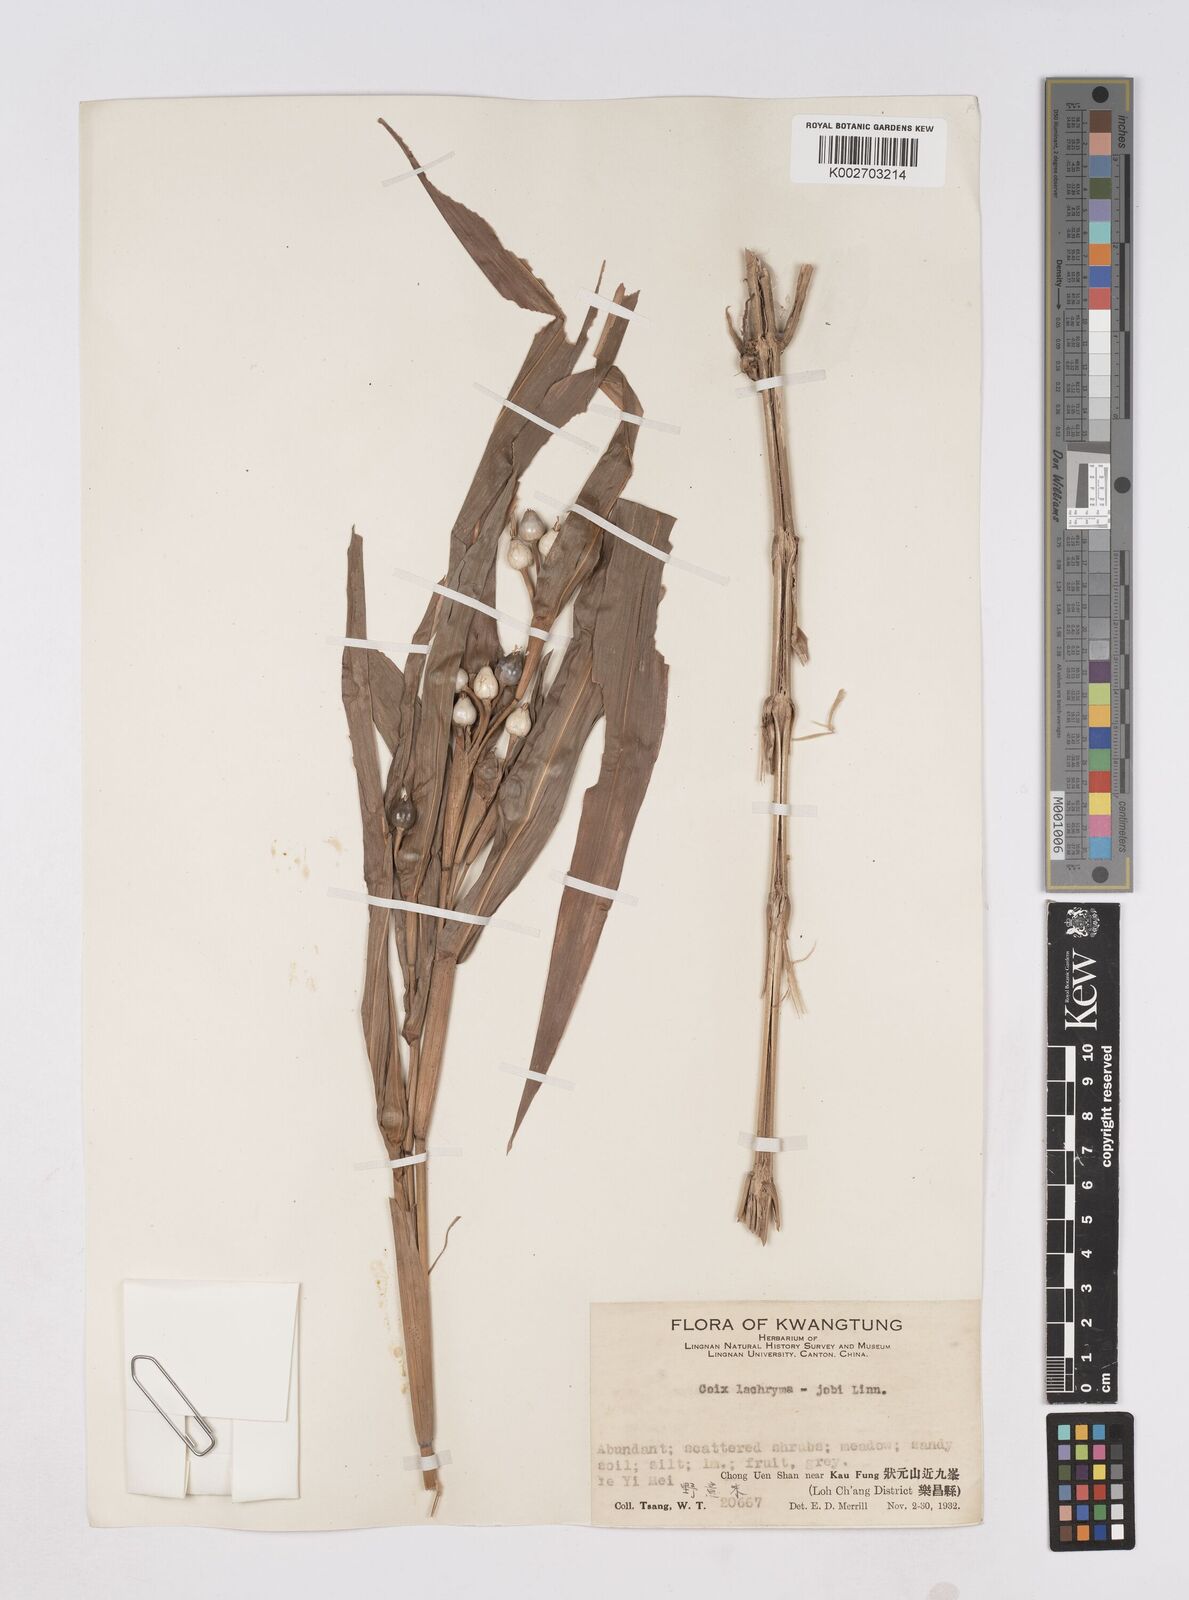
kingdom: Plantae
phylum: Tracheophyta
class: Liliopsida
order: Poales
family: Poaceae
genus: Coix
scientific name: Coix lacryma-jobi
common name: Job's tears
